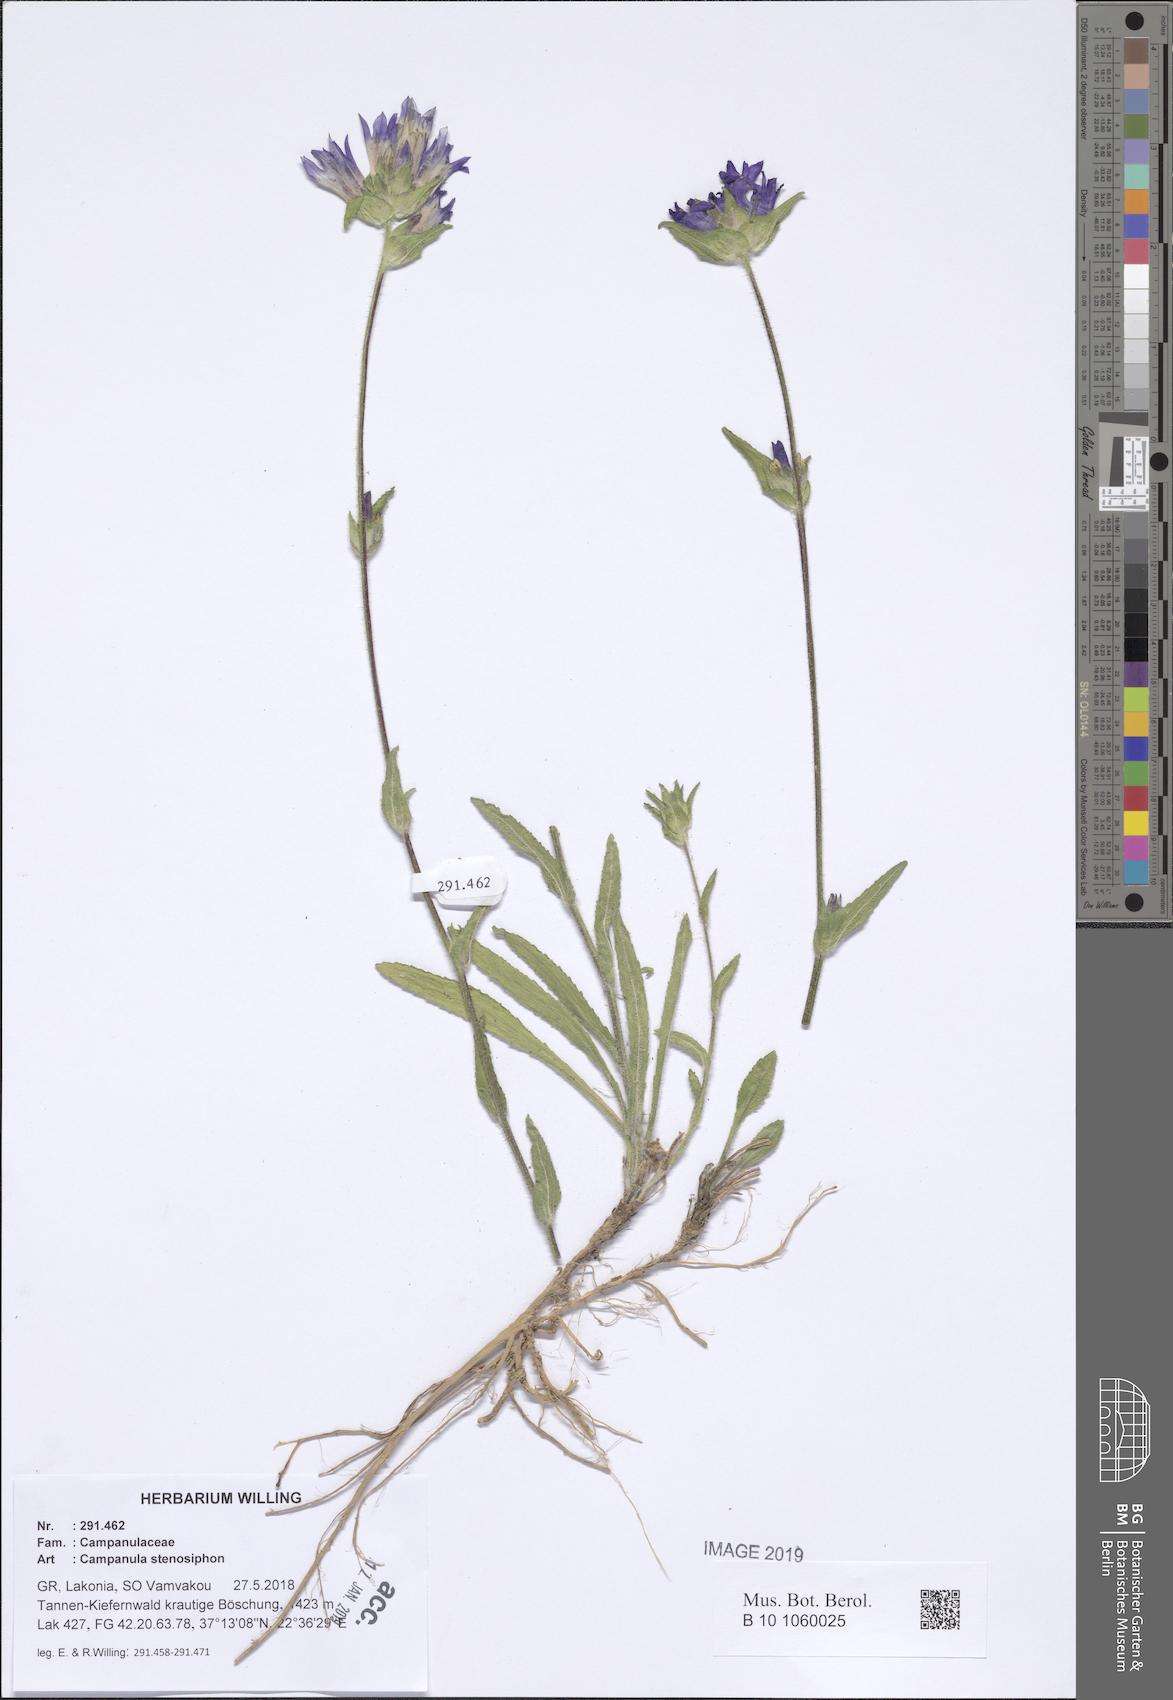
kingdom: Plantae
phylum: Tracheophyta
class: Magnoliopsida
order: Asterales
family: Campanulaceae
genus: Campanula
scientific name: Campanula stenosiphon
